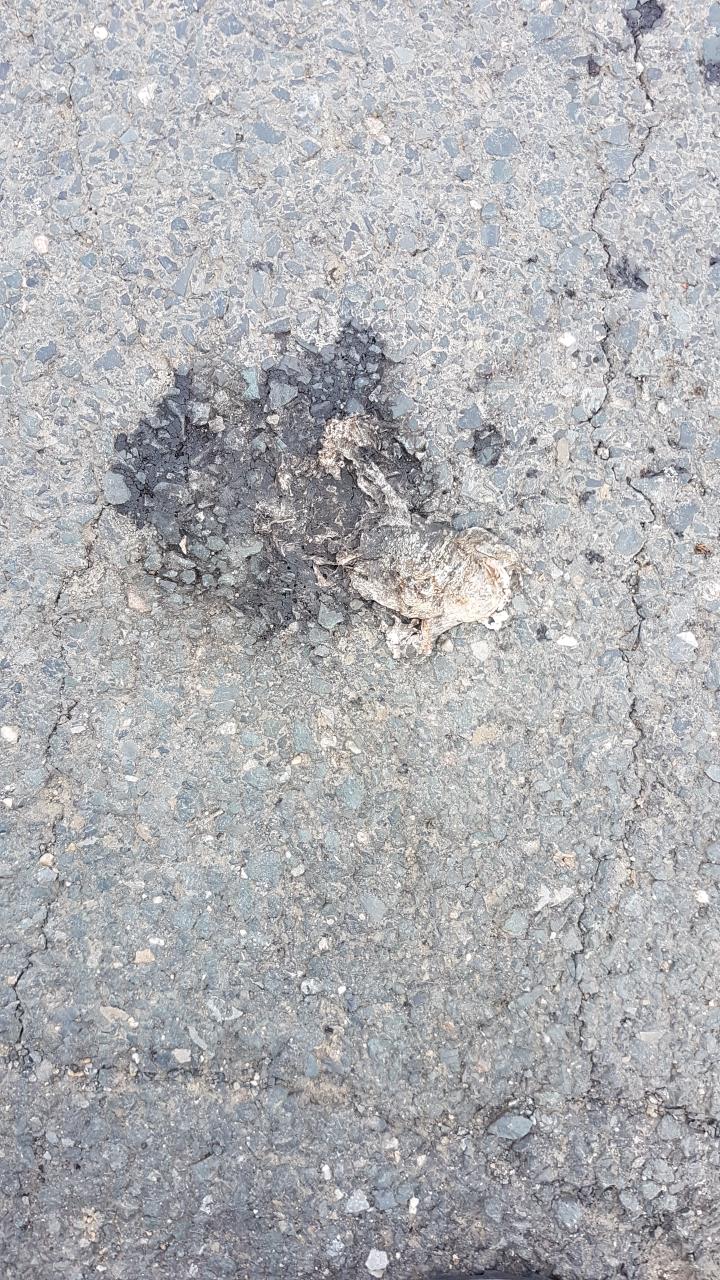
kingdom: Animalia
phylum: Chordata
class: Amphibia
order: Anura
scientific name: Anura
